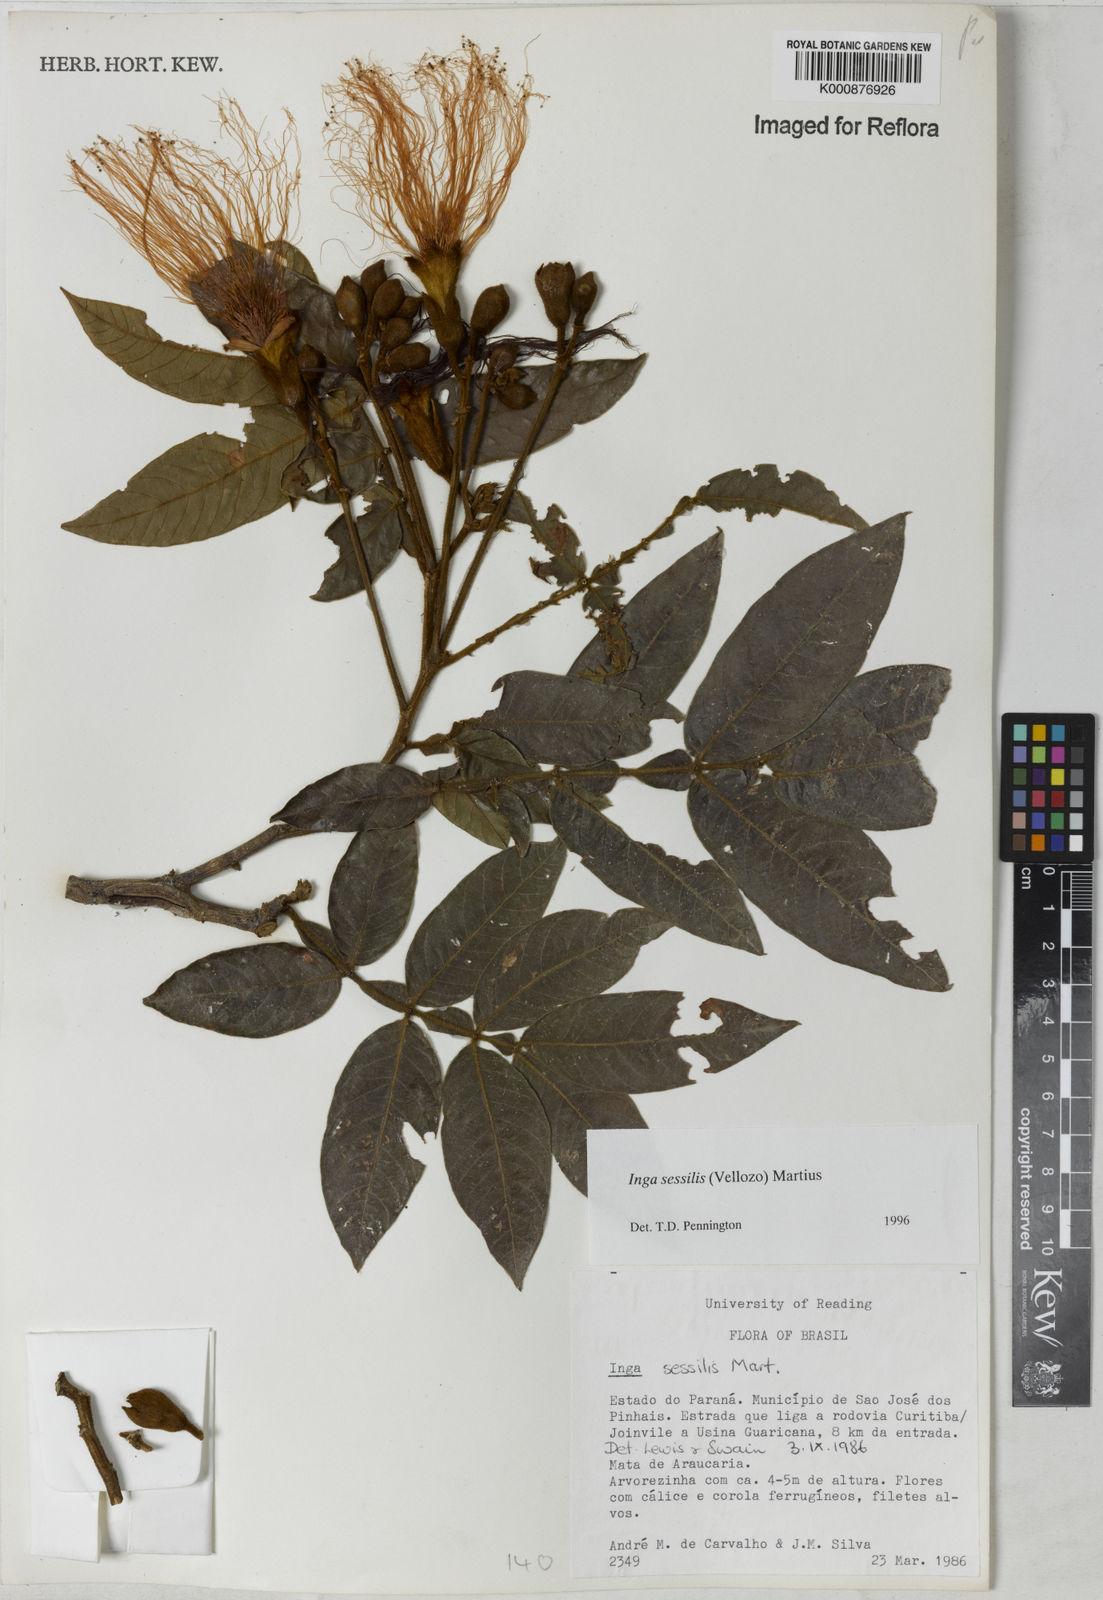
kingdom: Plantae
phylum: Tracheophyta
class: Magnoliopsida
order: Fabales
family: Fabaceae
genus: Inga
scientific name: Inga sessilis
